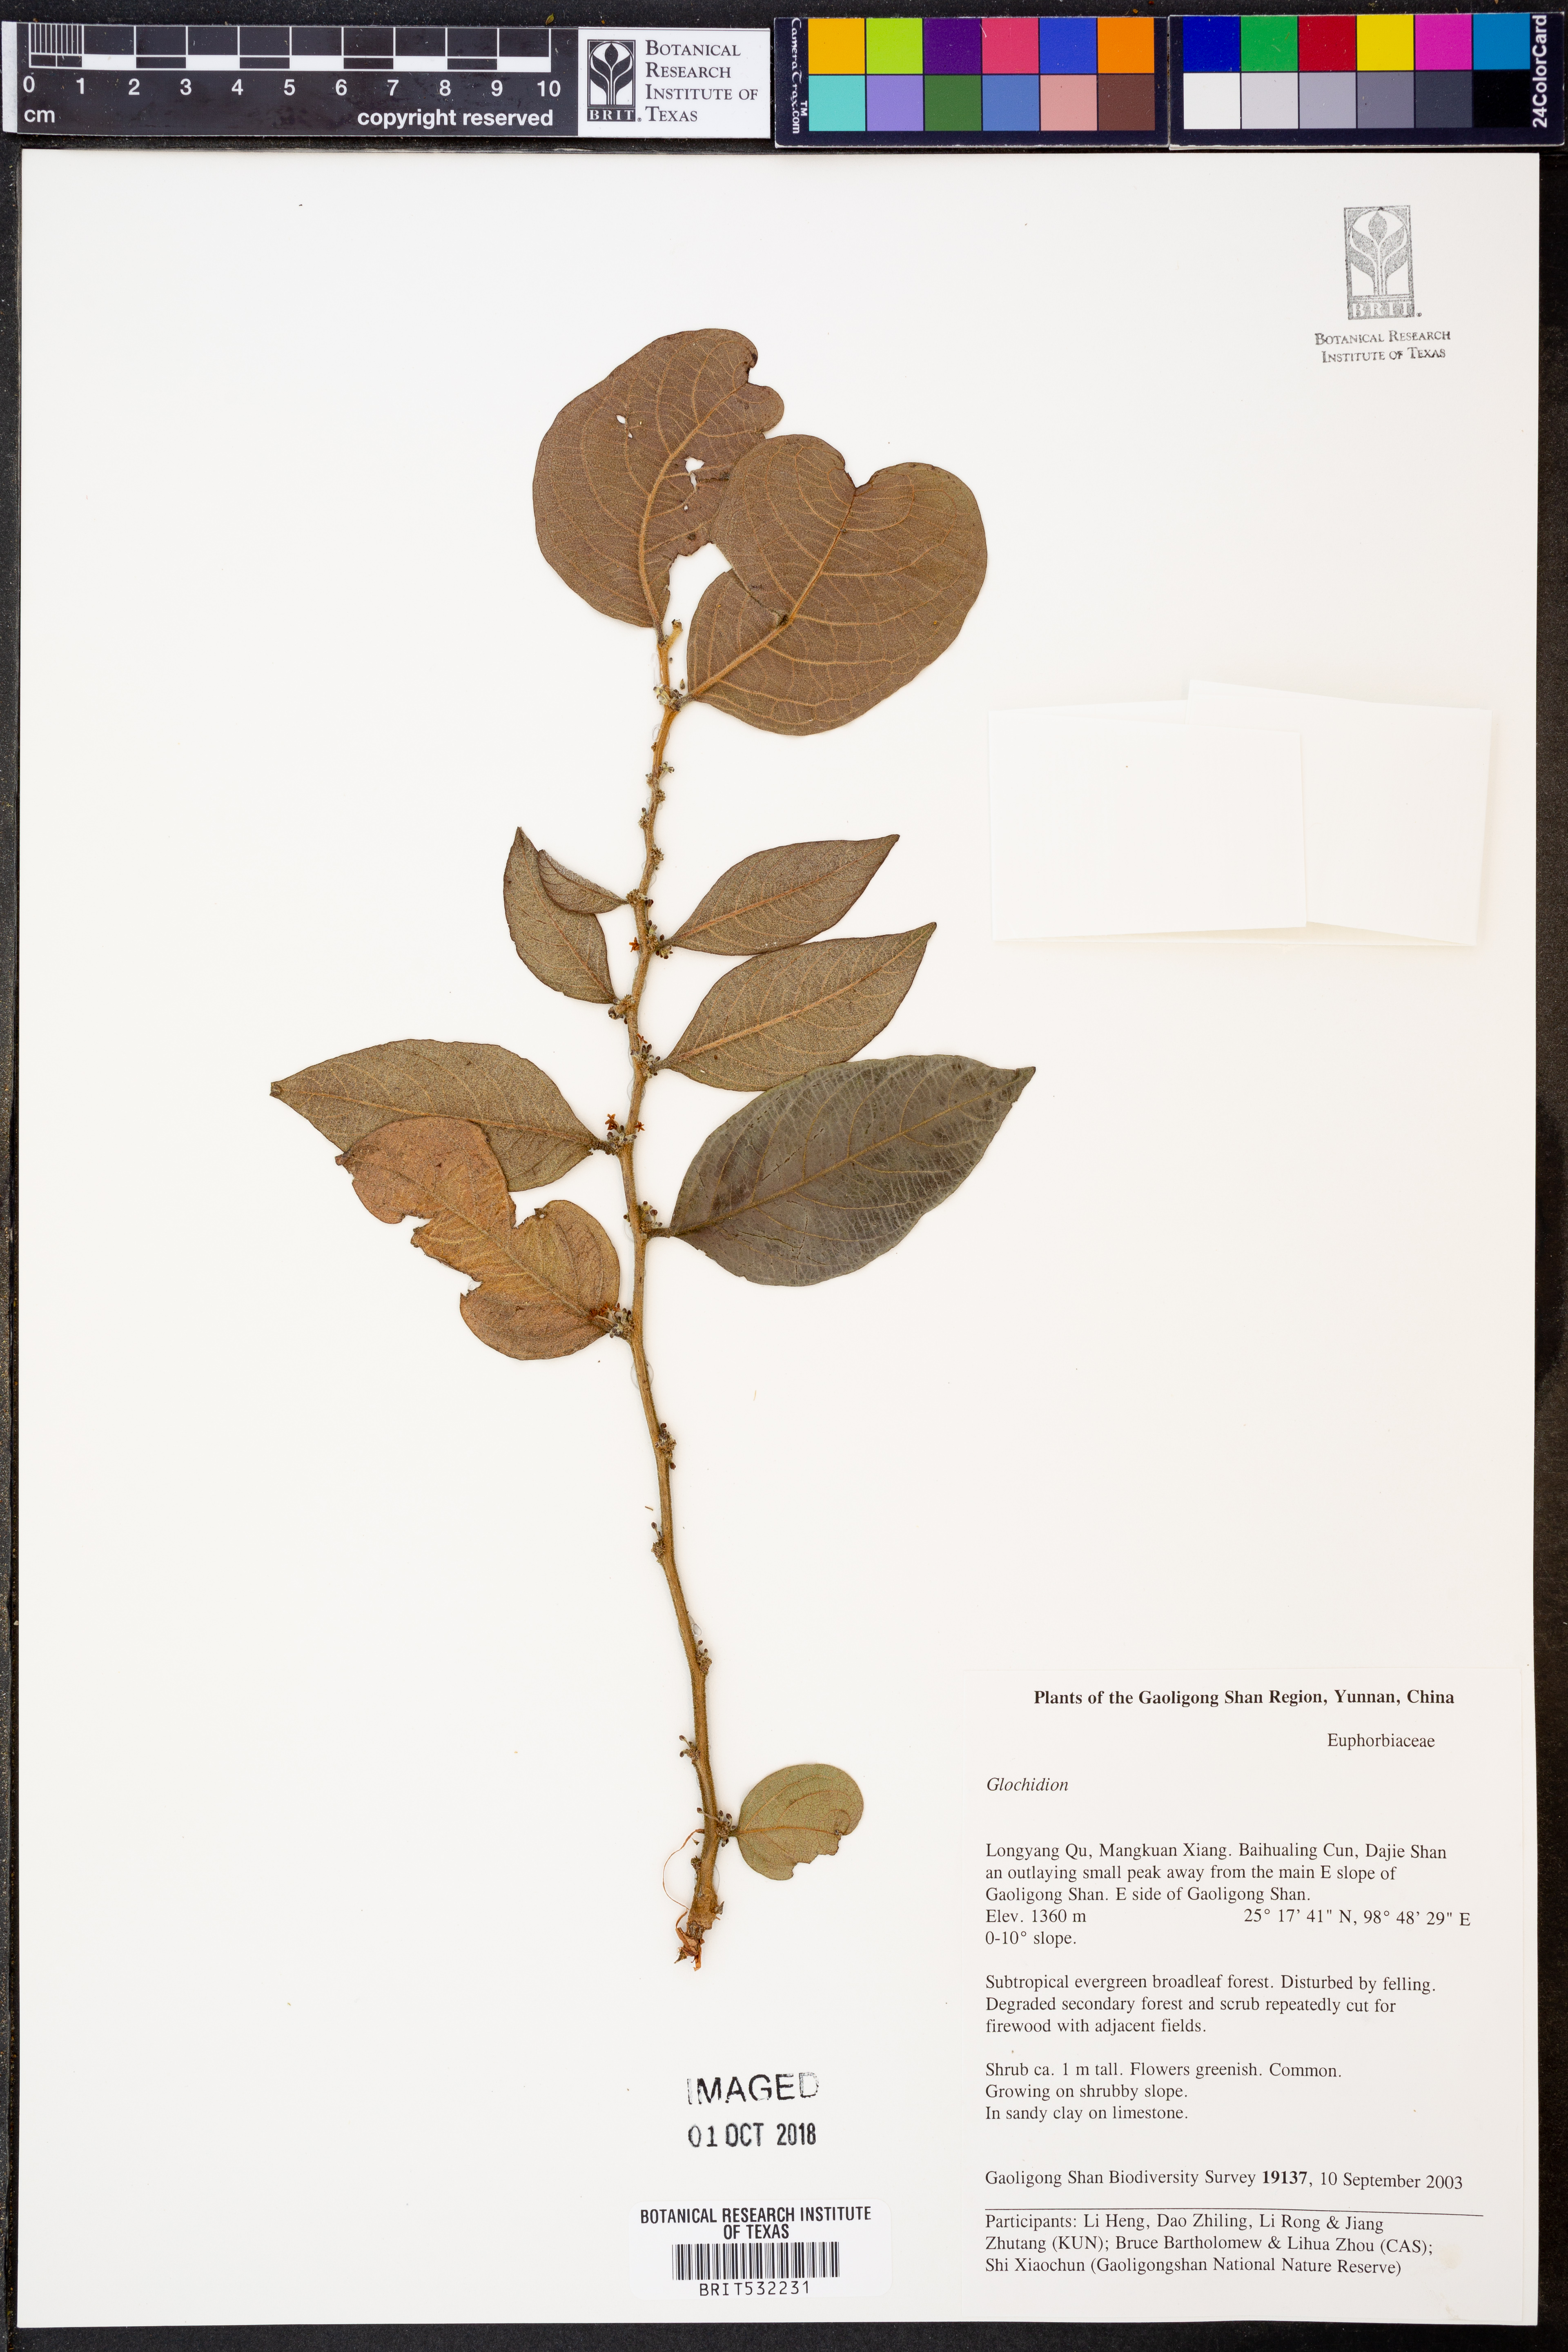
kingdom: Plantae
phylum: Tracheophyta
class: Magnoliopsida
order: Malpighiales
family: Phyllanthaceae
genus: Glochidion
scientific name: Glochidion eriocarpum
